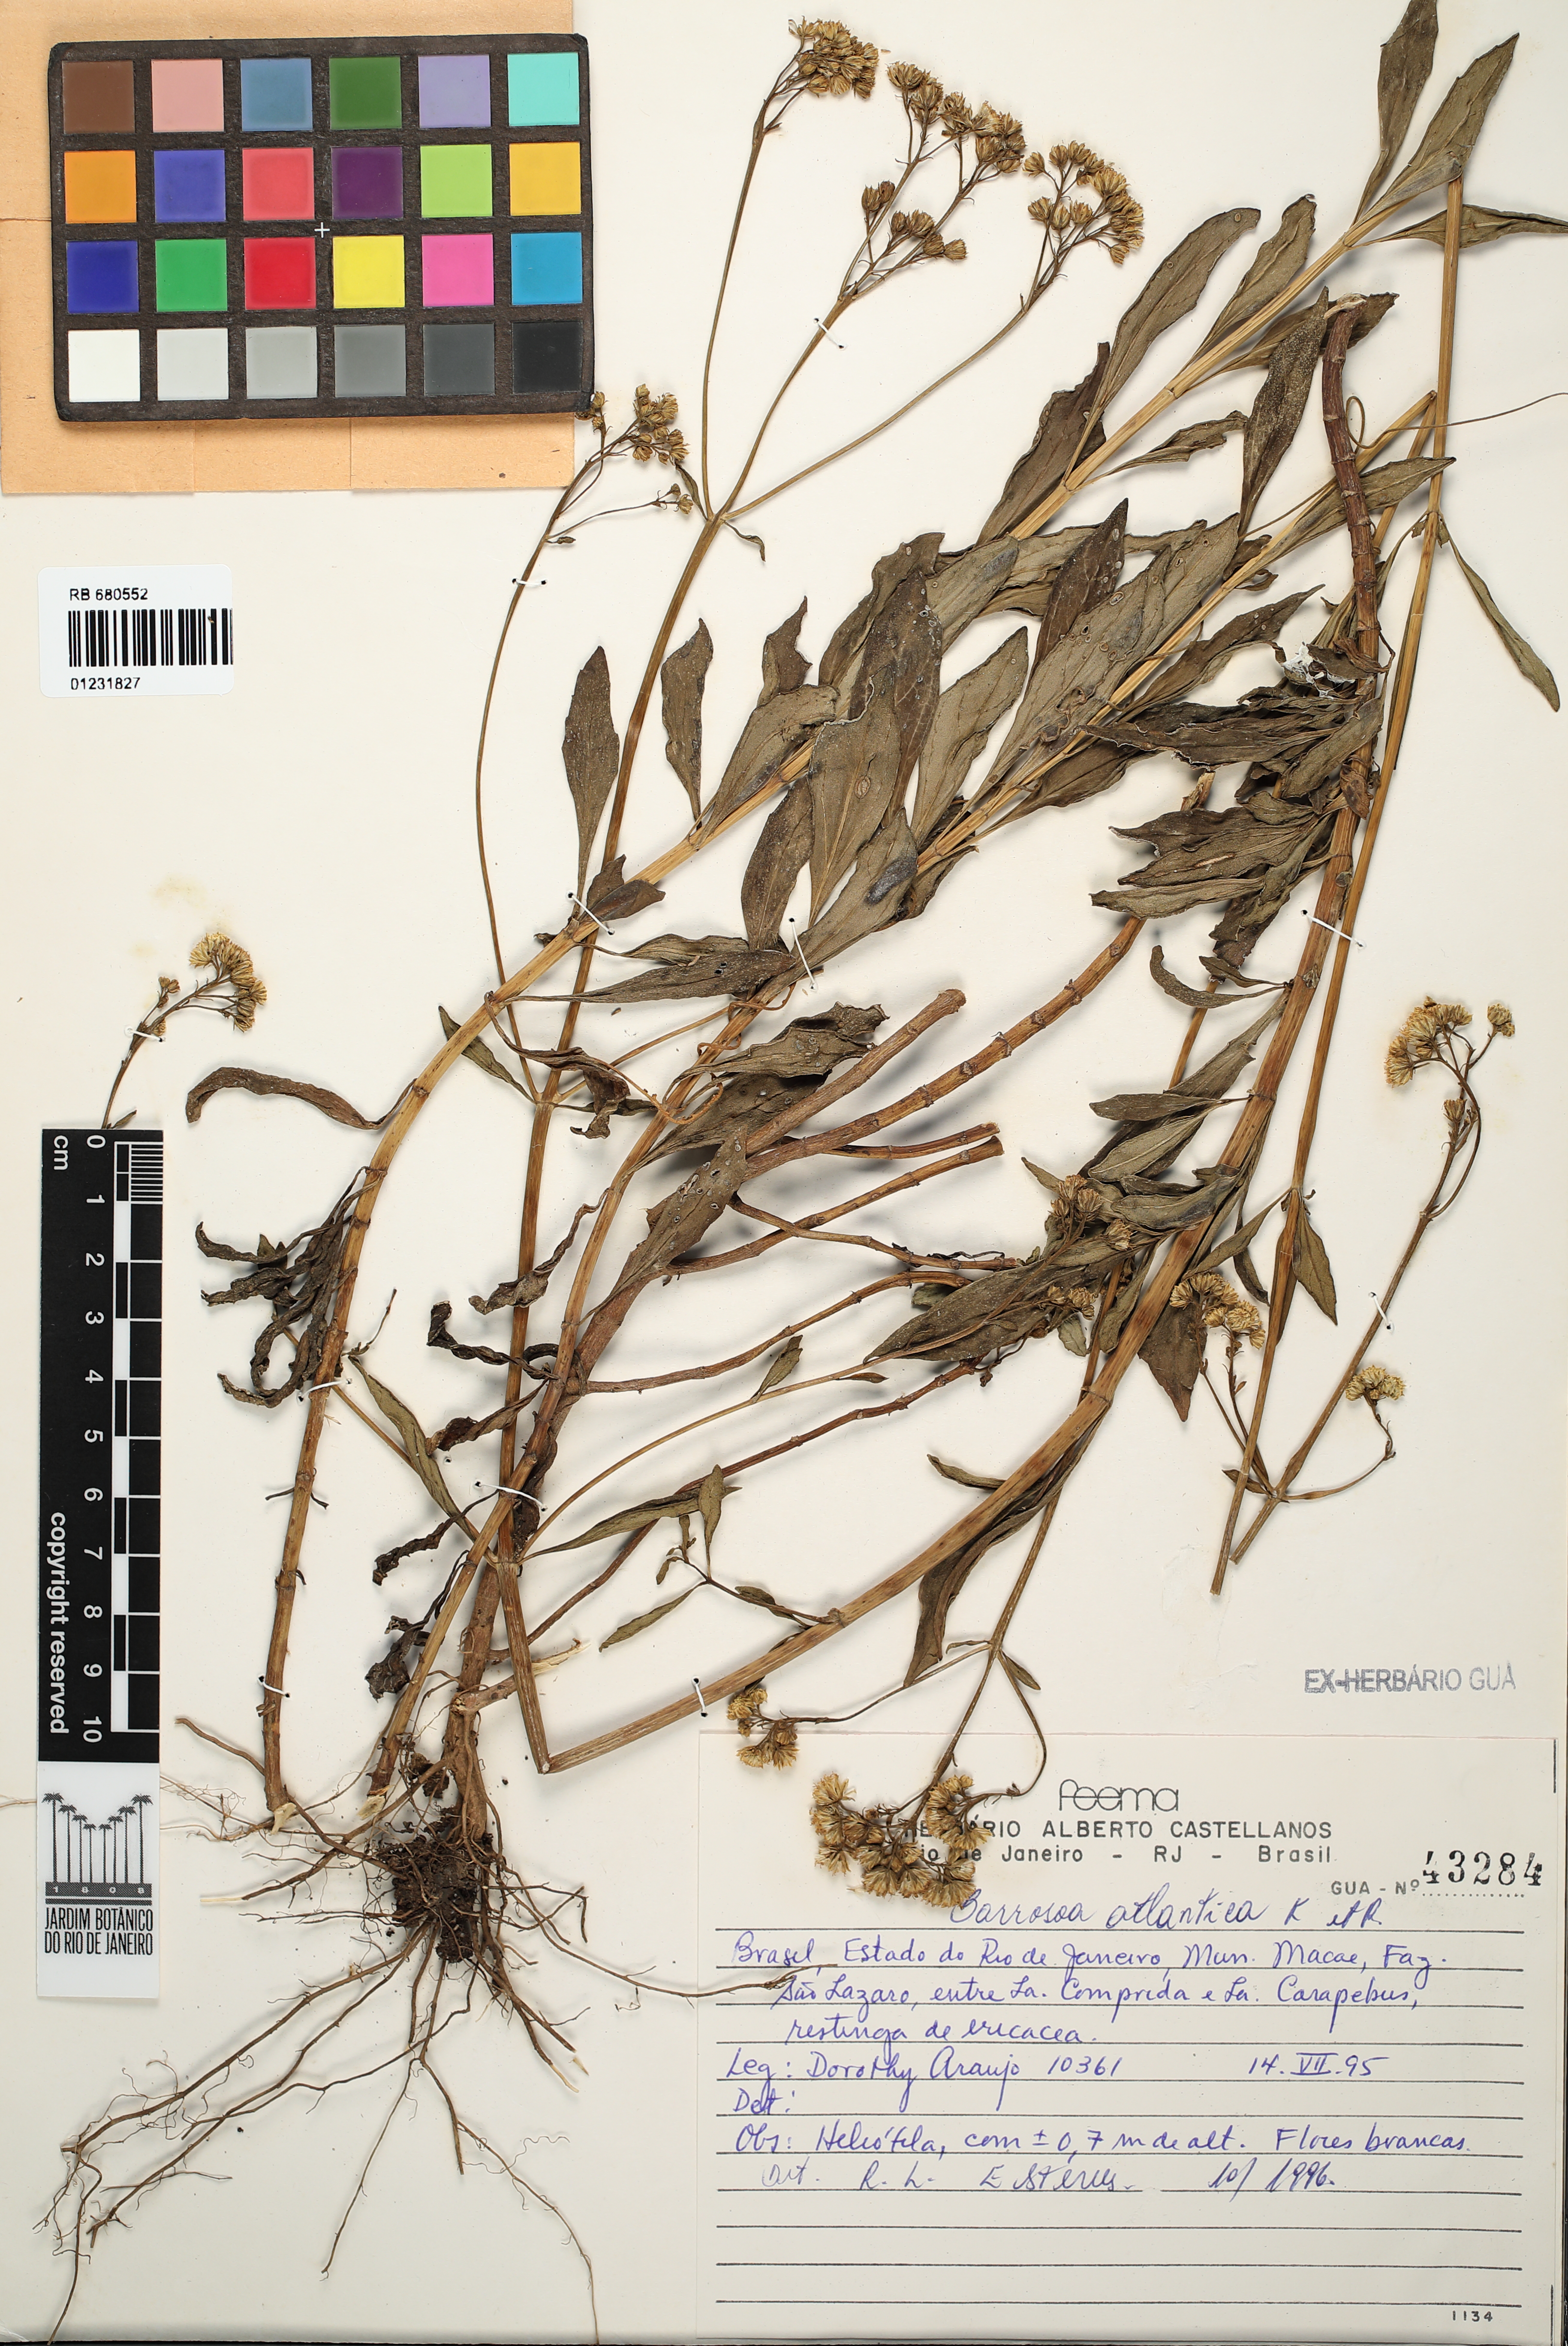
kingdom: Plantae
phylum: Tracheophyta
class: Magnoliopsida
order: Asterales
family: Asteraceae
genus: Barrosoa
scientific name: Barrosoa atlantica
